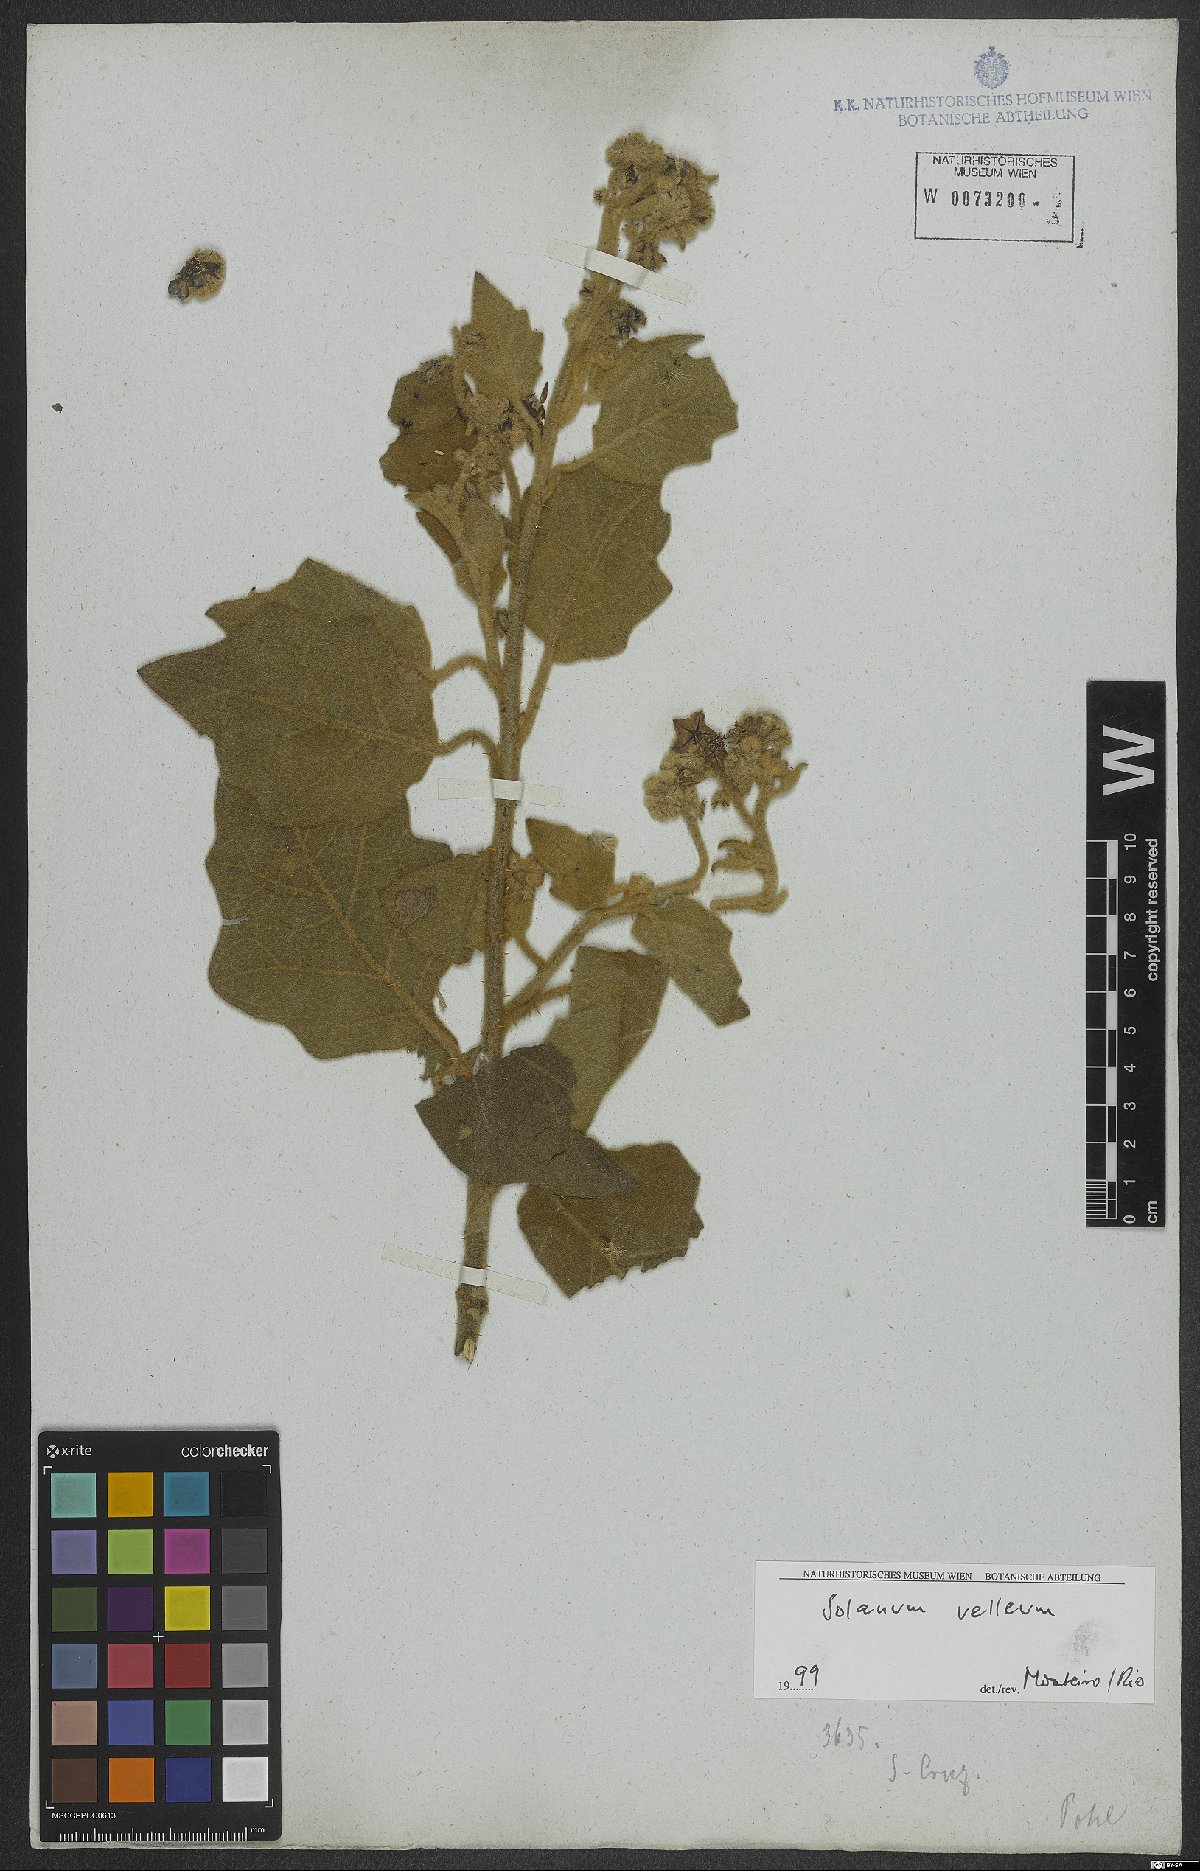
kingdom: Plantae
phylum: Tracheophyta
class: Magnoliopsida
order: Solanales
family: Solanaceae
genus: Solanum
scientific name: Solanum velleum
